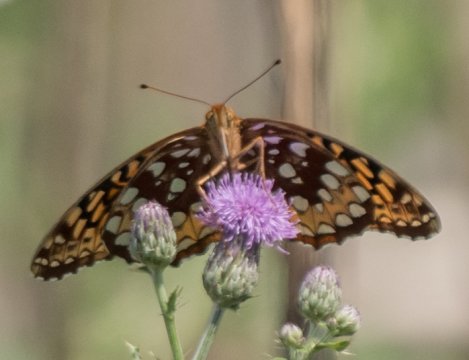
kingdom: Animalia
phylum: Arthropoda
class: Insecta
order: Lepidoptera
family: Nymphalidae
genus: Speyeria
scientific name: Speyeria cybele
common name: Great Spangled Fritillary
